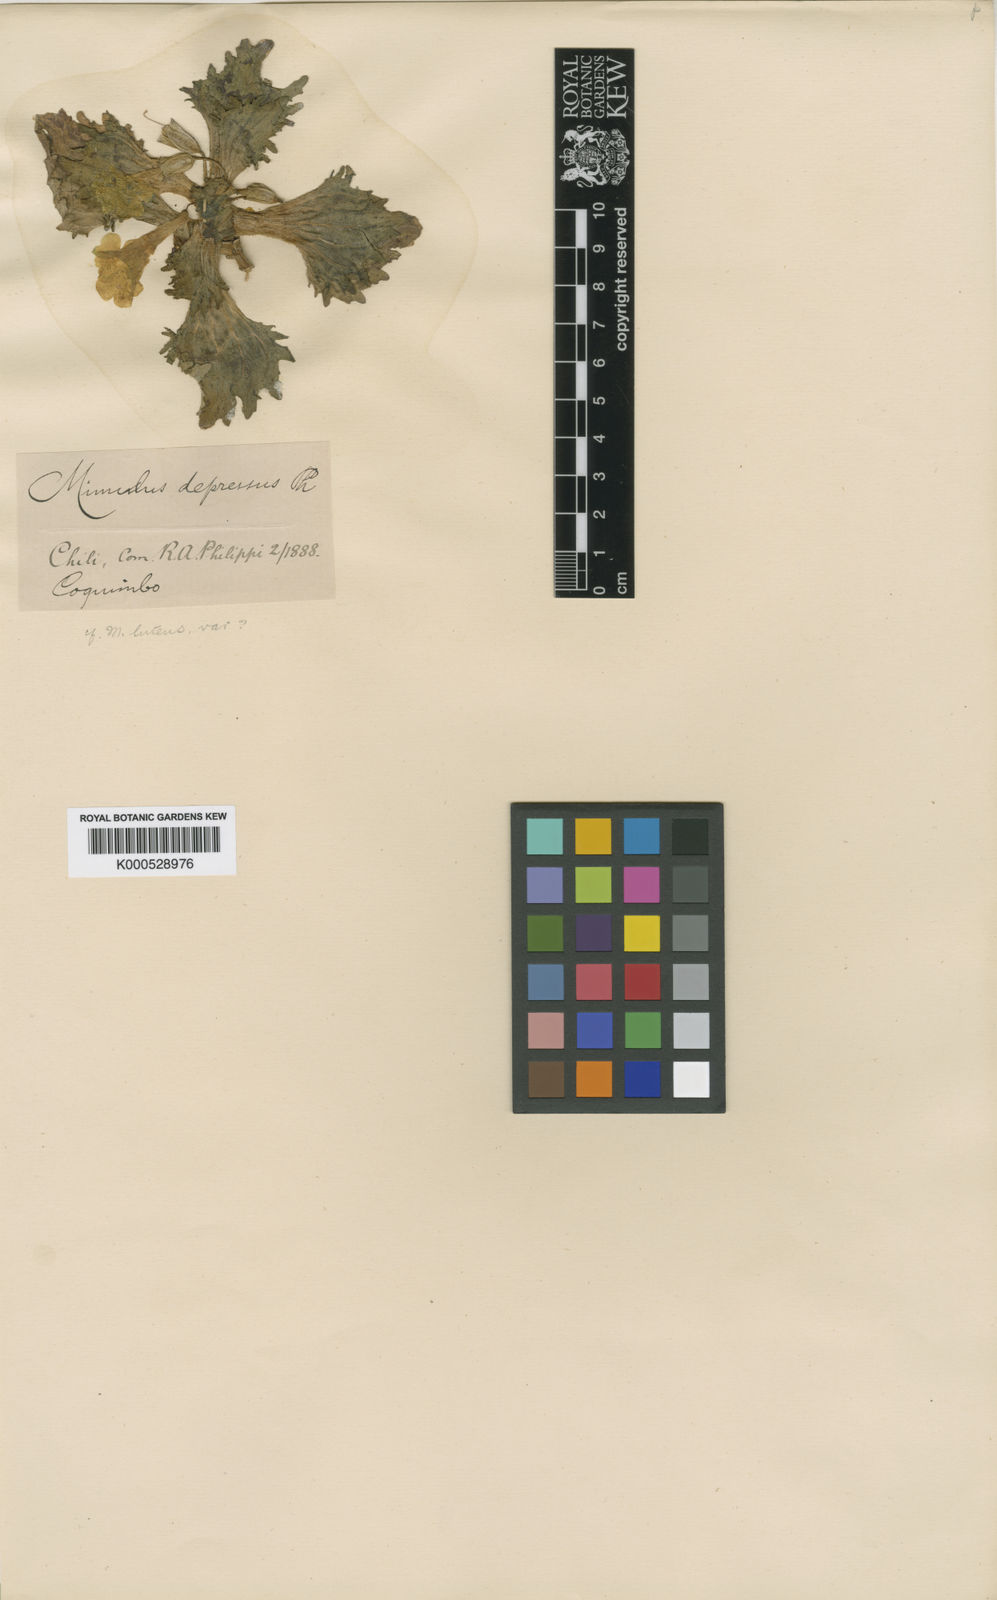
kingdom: Plantae
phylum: Tracheophyta
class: Magnoliopsida
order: Lamiales
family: Phrymaceae
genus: Erythranthe
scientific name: Erythranthe depressa
